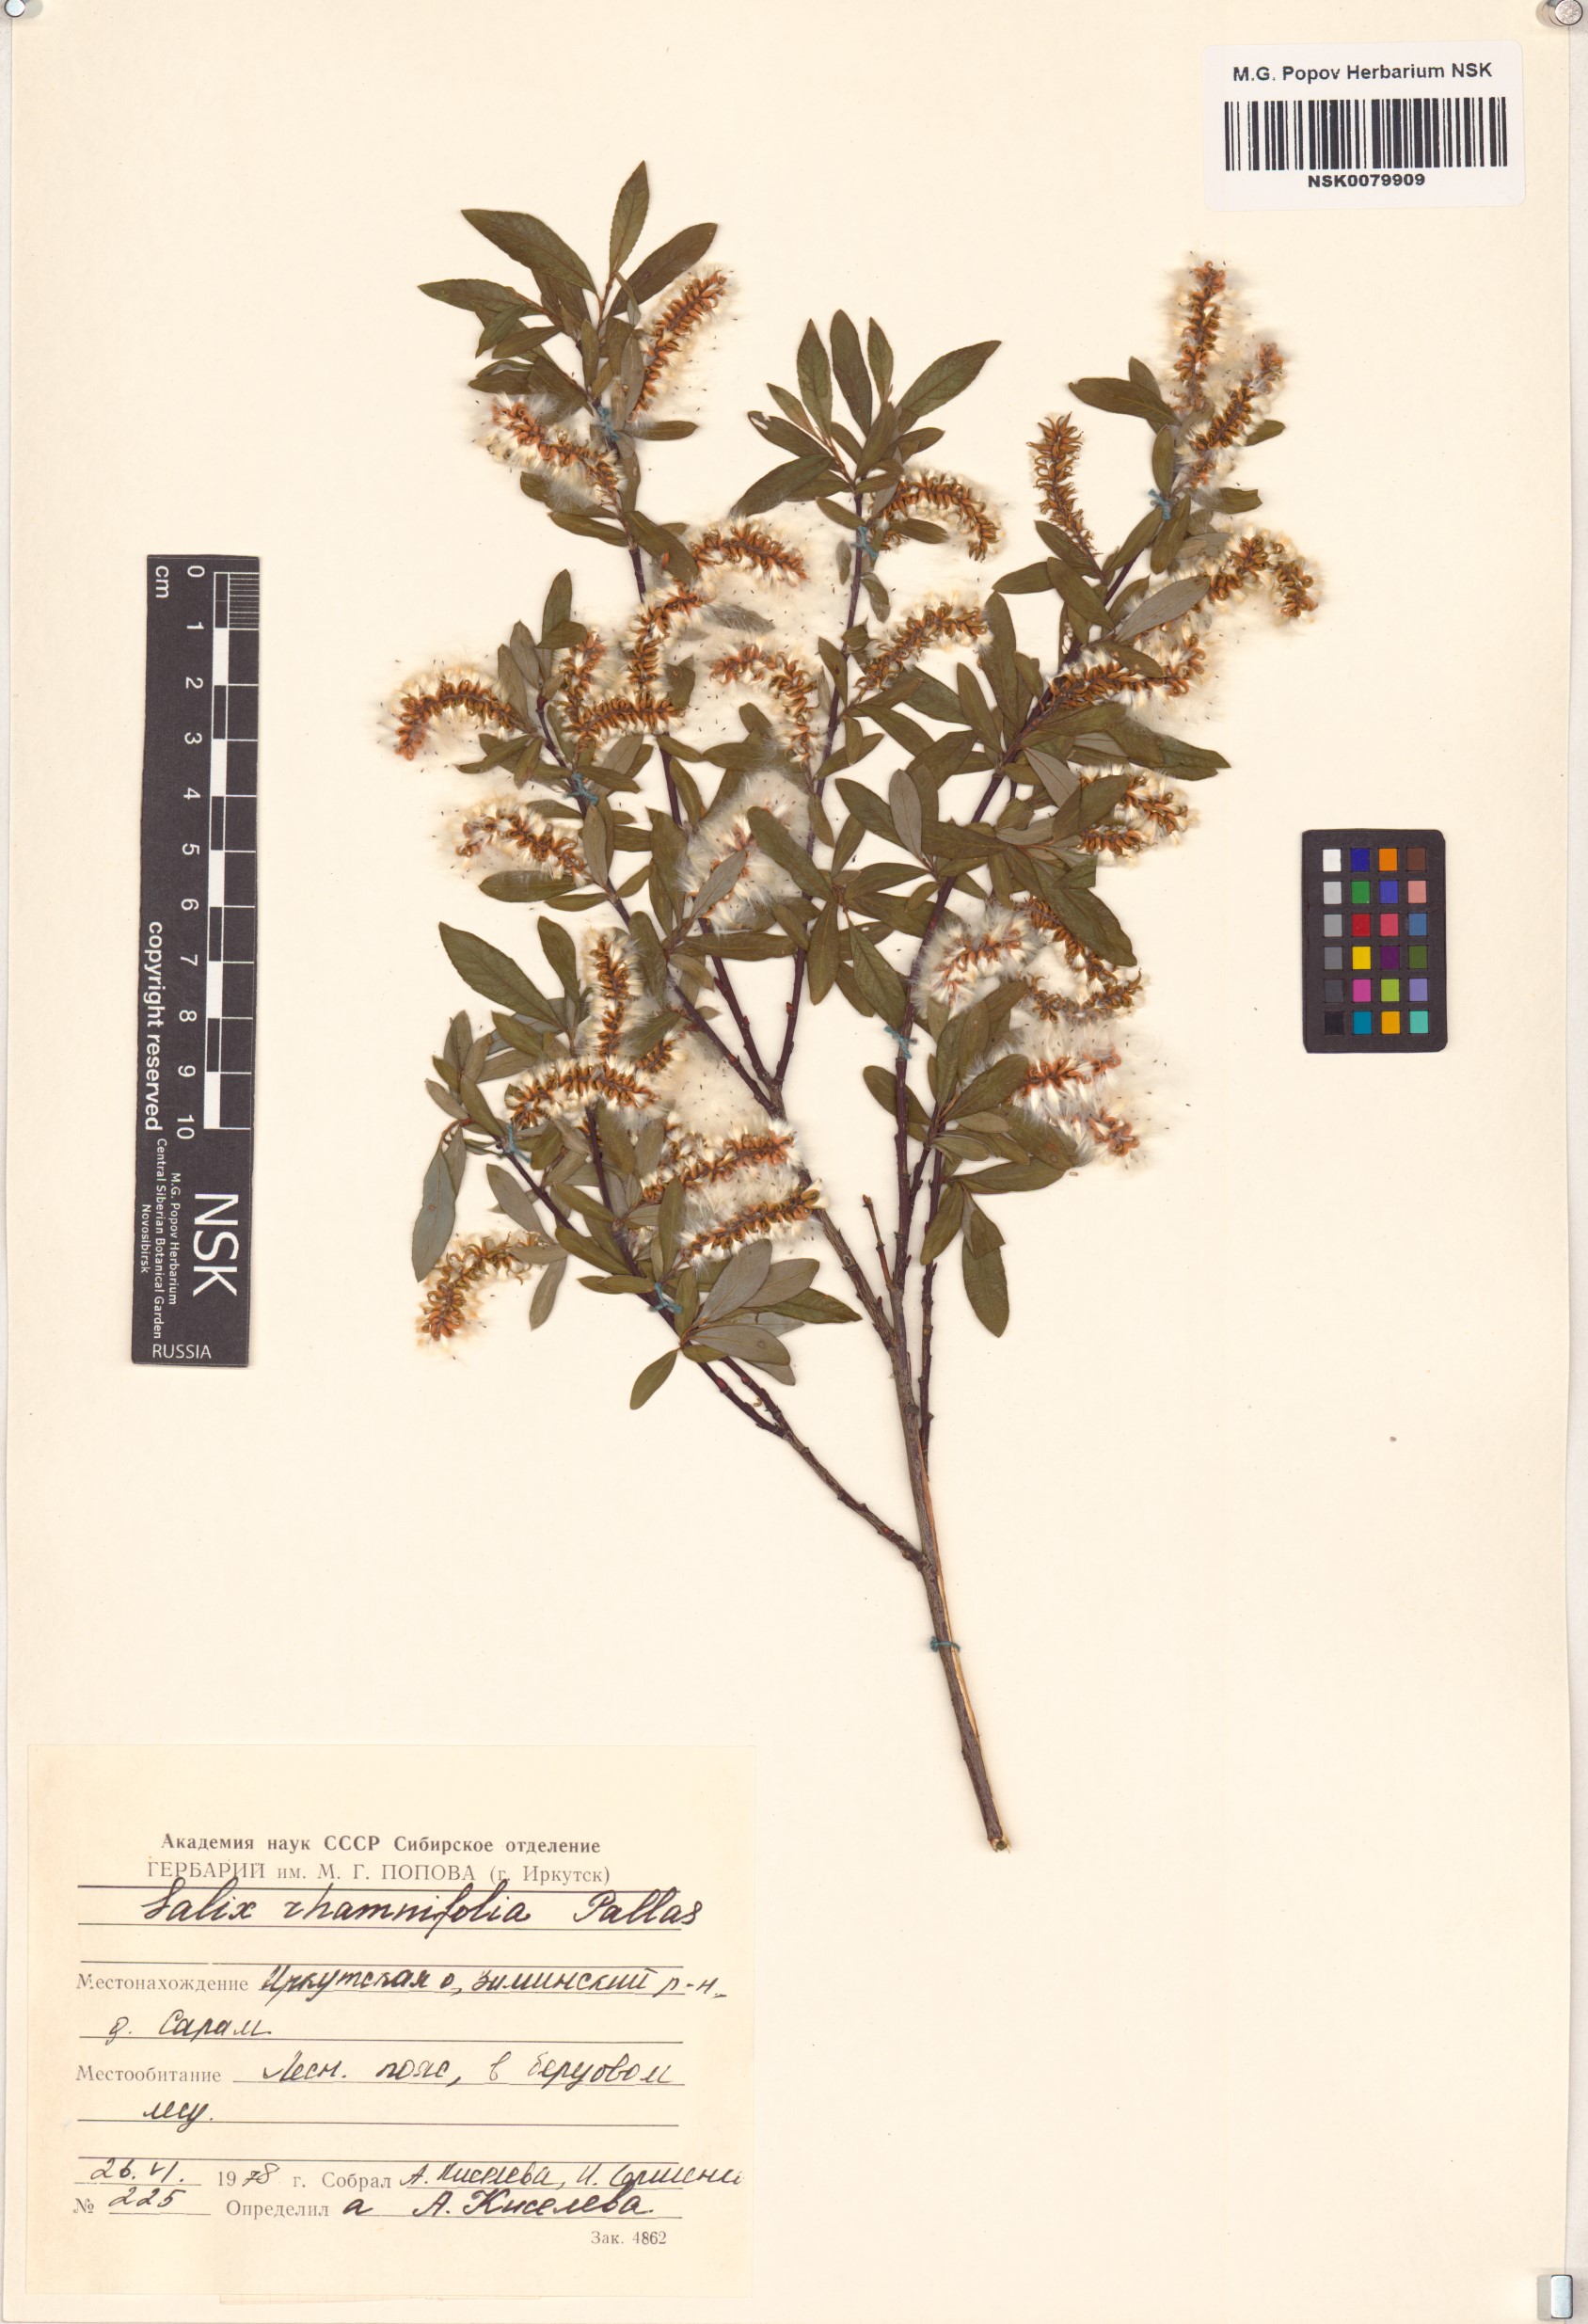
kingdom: Plantae
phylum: Tracheophyta
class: Magnoliopsida
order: Malpighiales
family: Salicaceae
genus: Salix
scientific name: Salix rhamnifolia
